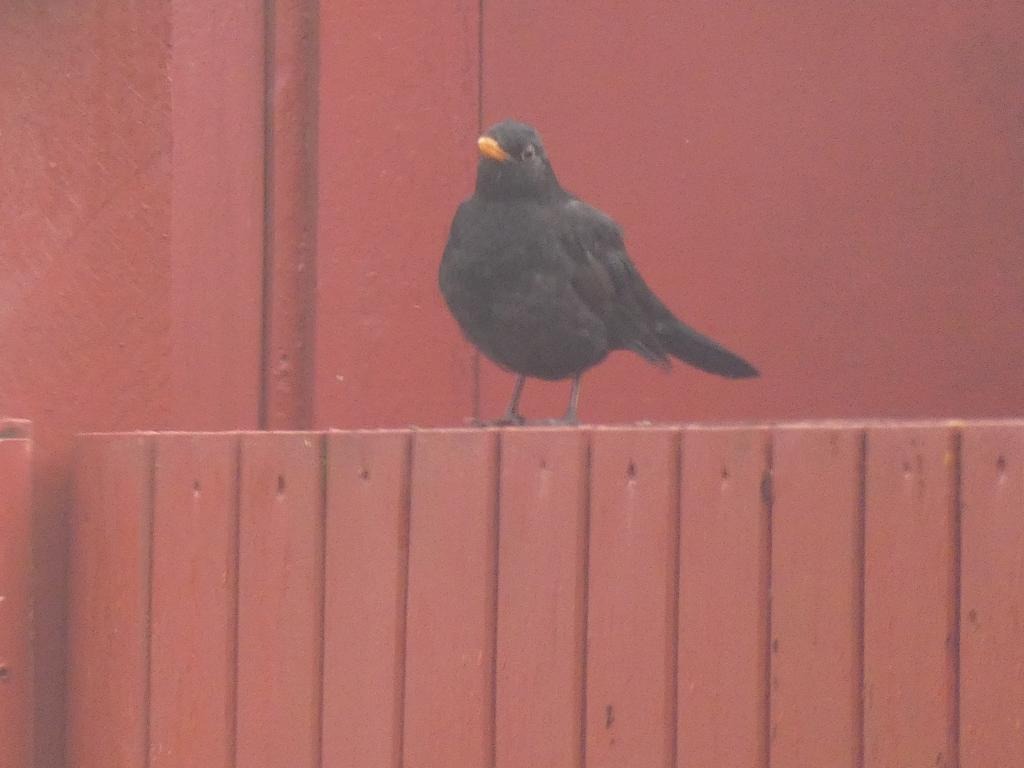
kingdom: Animalia
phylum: Chordata
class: Aves
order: Passeriformes
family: Turdidae
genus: Turdus
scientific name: Turdus merula
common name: Solsort
